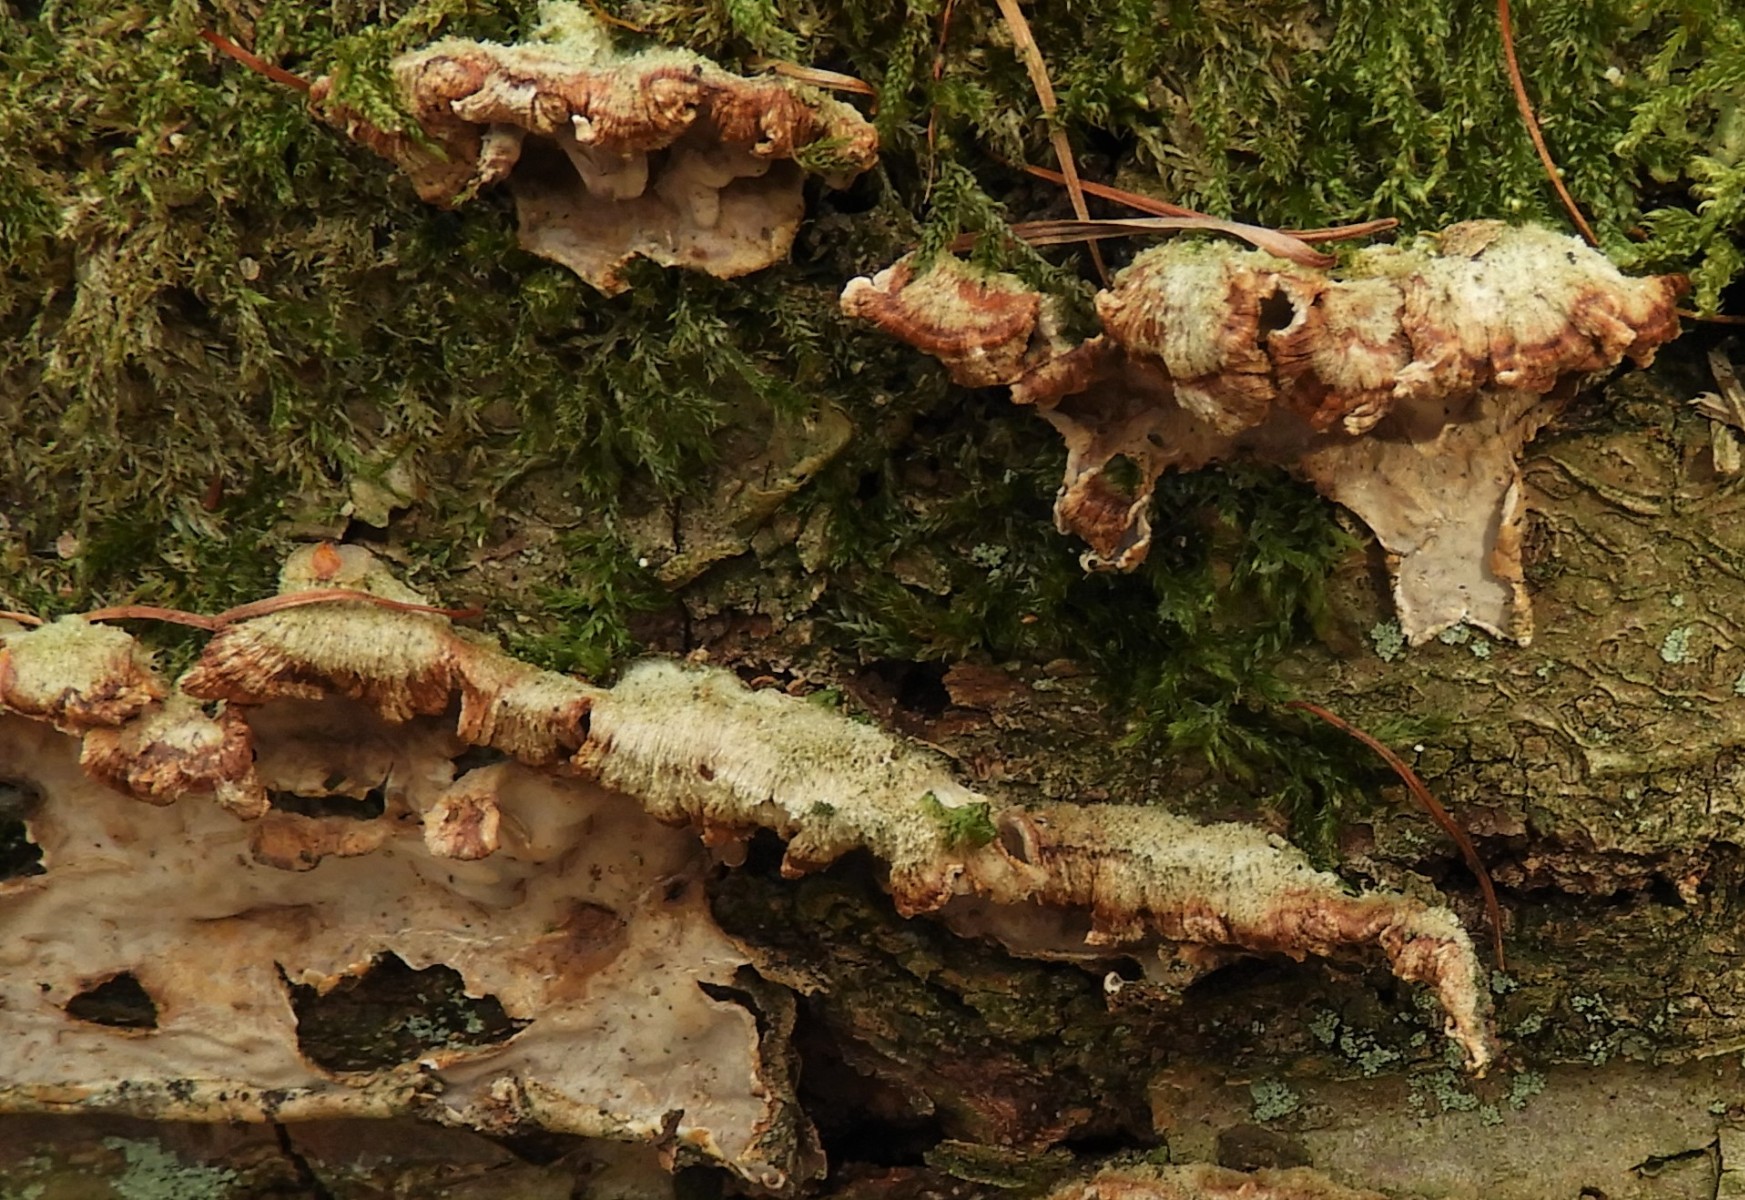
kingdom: Fungi
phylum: Basidiomycota
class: Agaricomycetes
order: Agaricales
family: Physalacriaceae
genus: Cylindrobasidium
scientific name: Cylindrobasidium evolvens
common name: sprækkehinde
